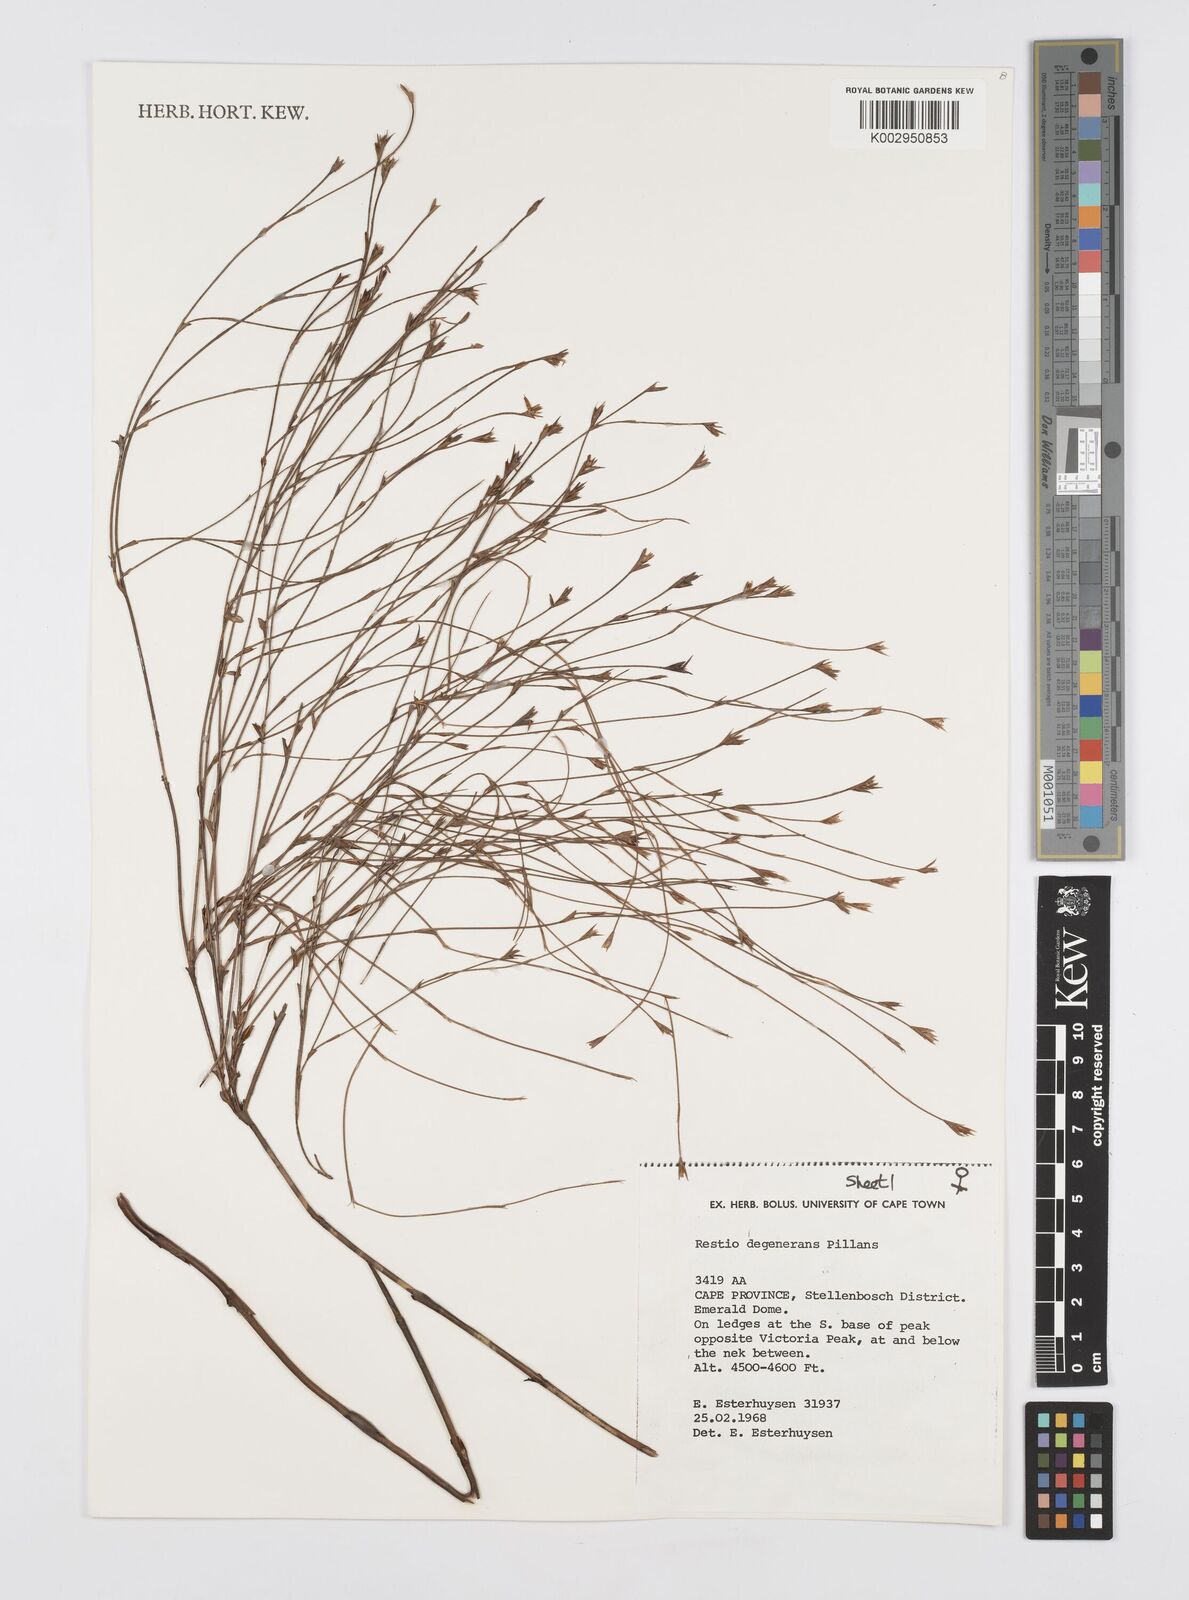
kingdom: Plantae
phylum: Tracheophyta
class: Liliopsida
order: Poales
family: Restionaceae
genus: Restio
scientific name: Restio degenerans
